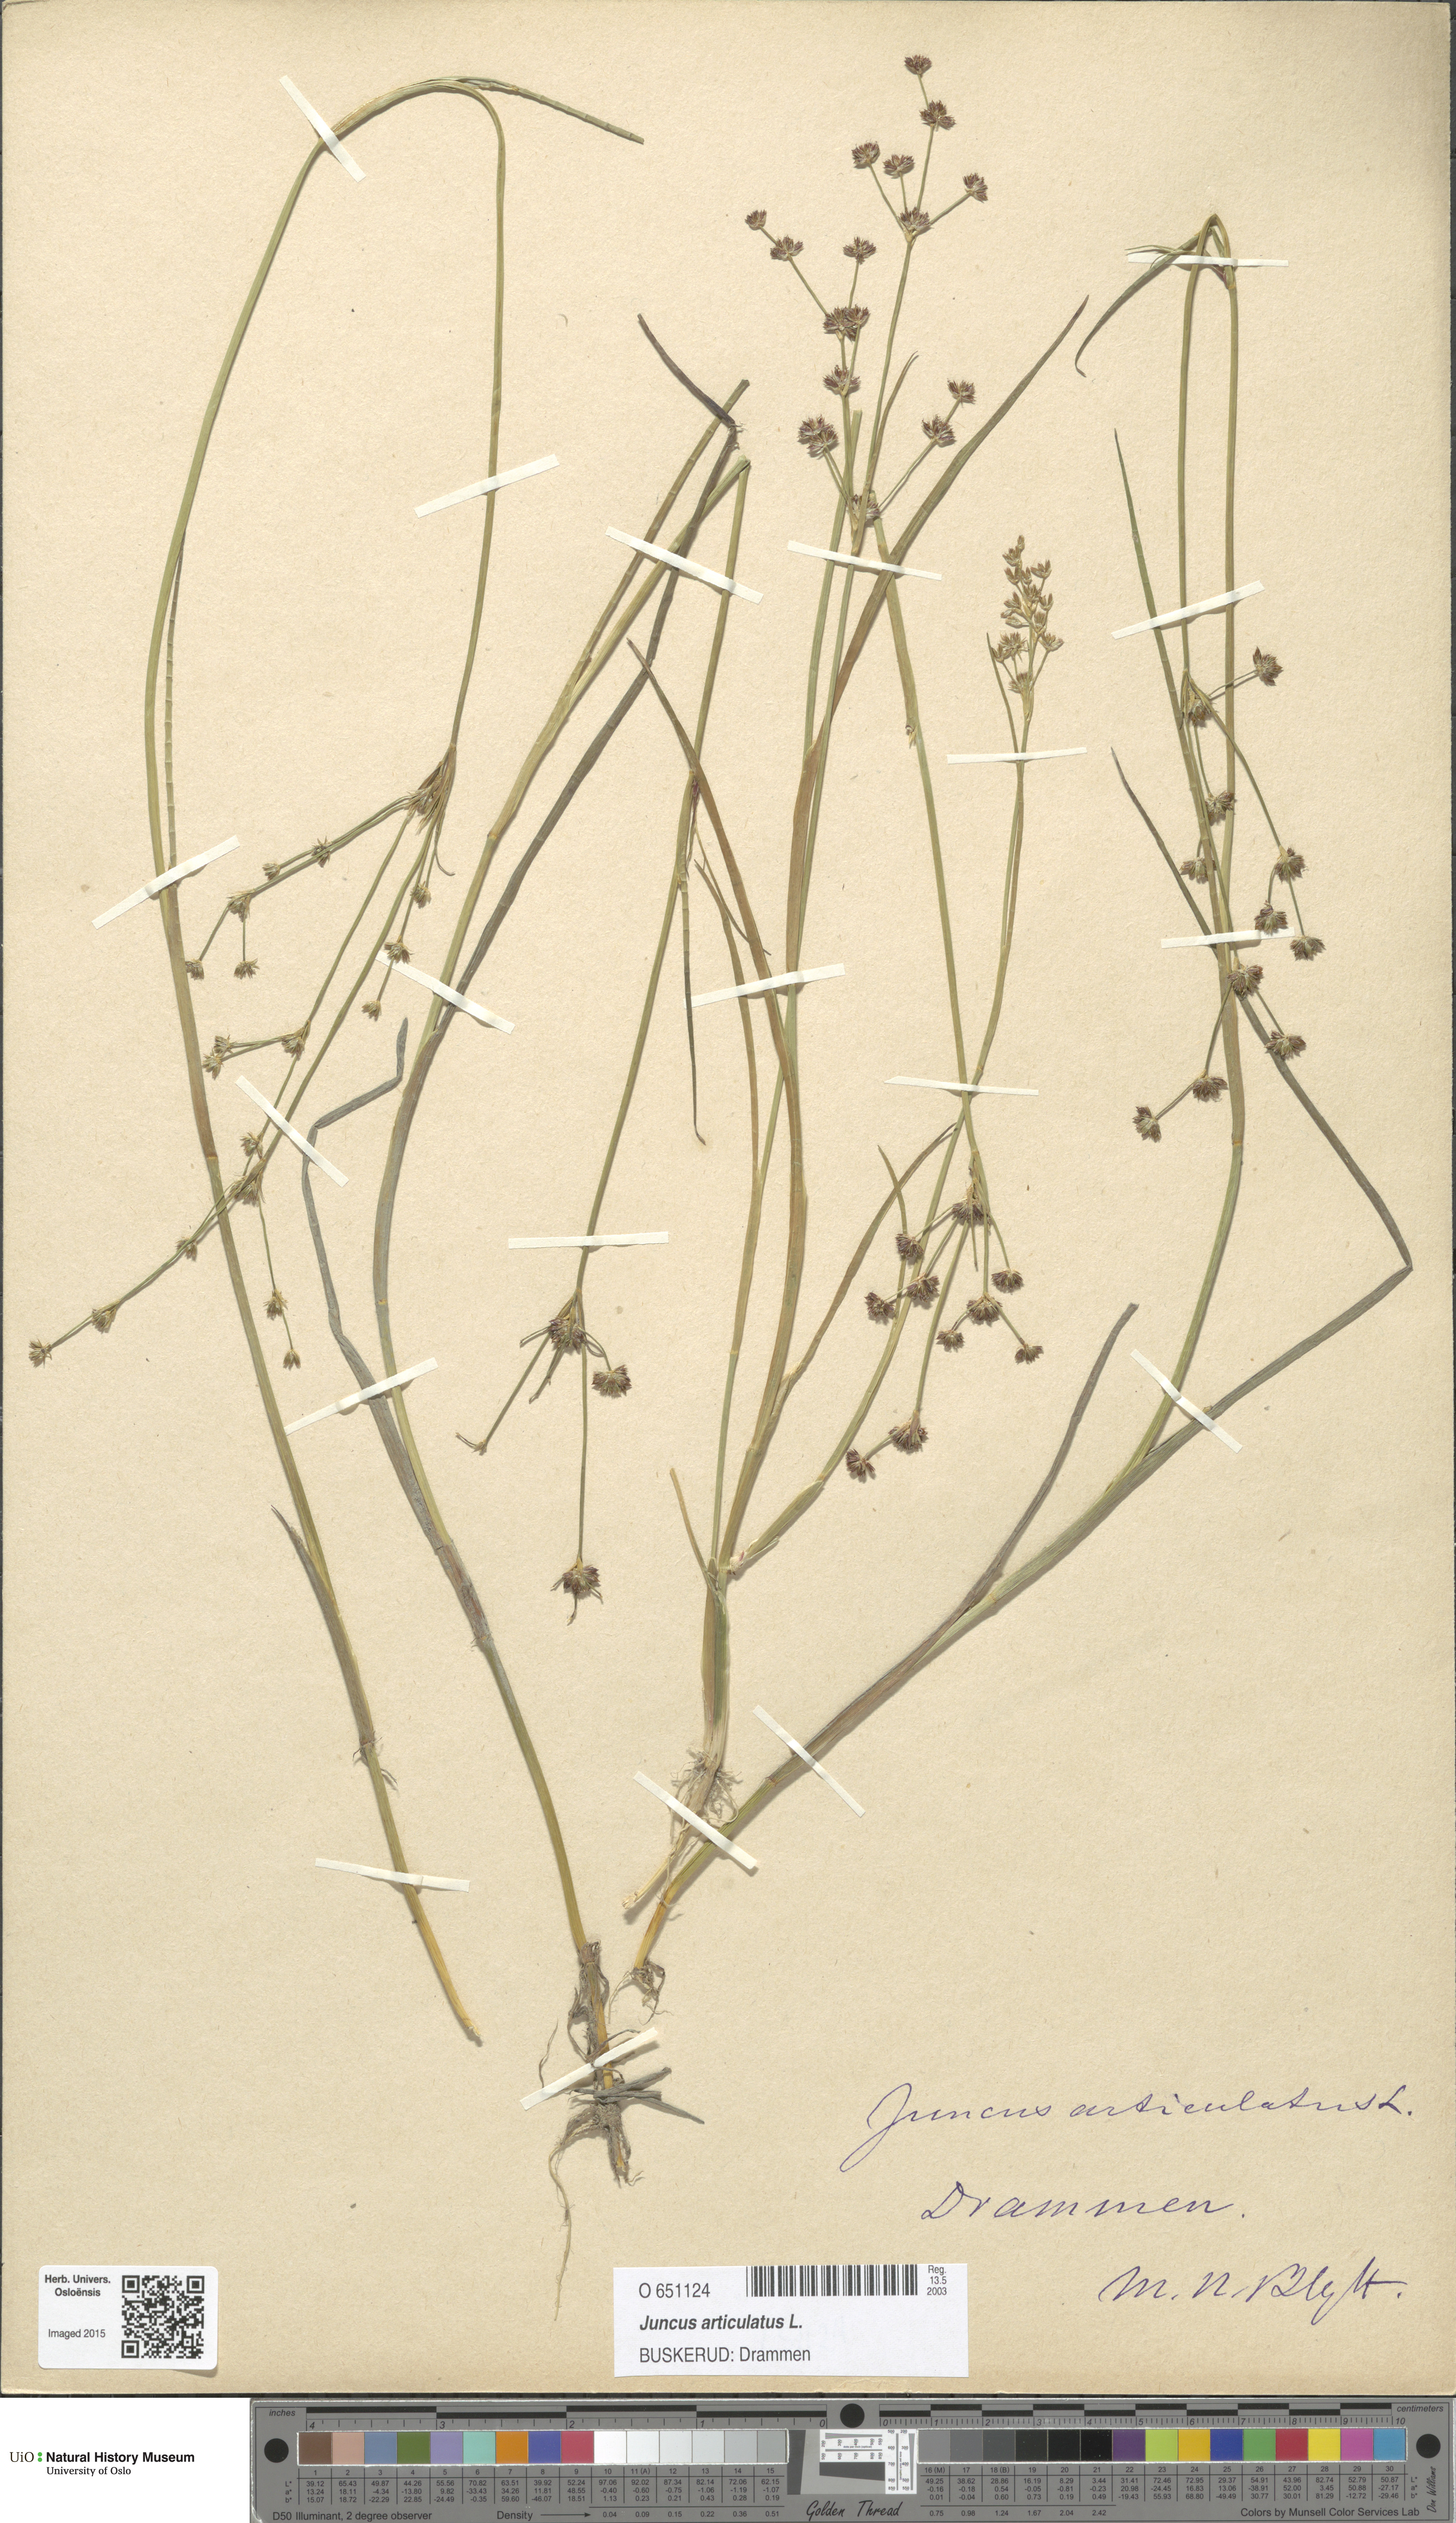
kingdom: Plantae
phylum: Tracheophyta
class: Liliopsida
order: Poales
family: Juncaceae
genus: Juncus
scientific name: Juncus articulatus
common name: Jointed rush
